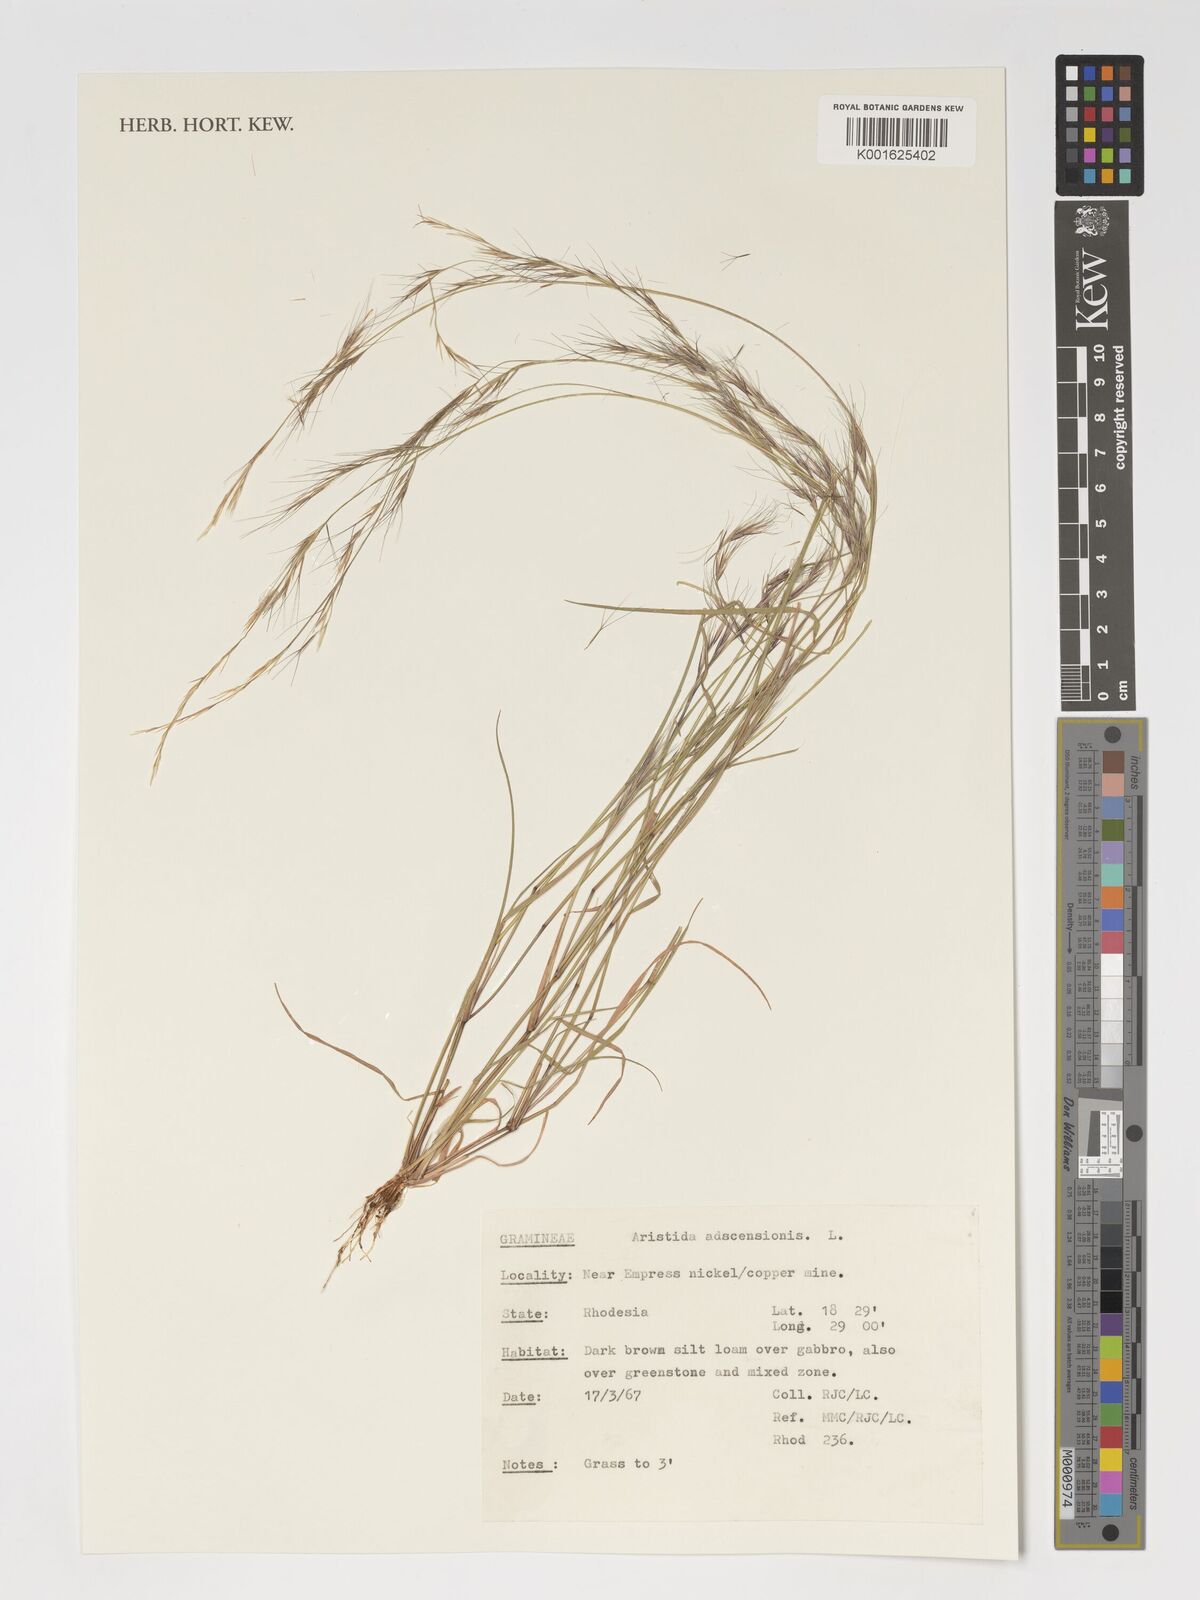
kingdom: Plantae
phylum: Tracheophyta
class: Liliopsida
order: Poales
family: Poaceae
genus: Aristida
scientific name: Aristida adscensionis
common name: Sixweeks threeawn
